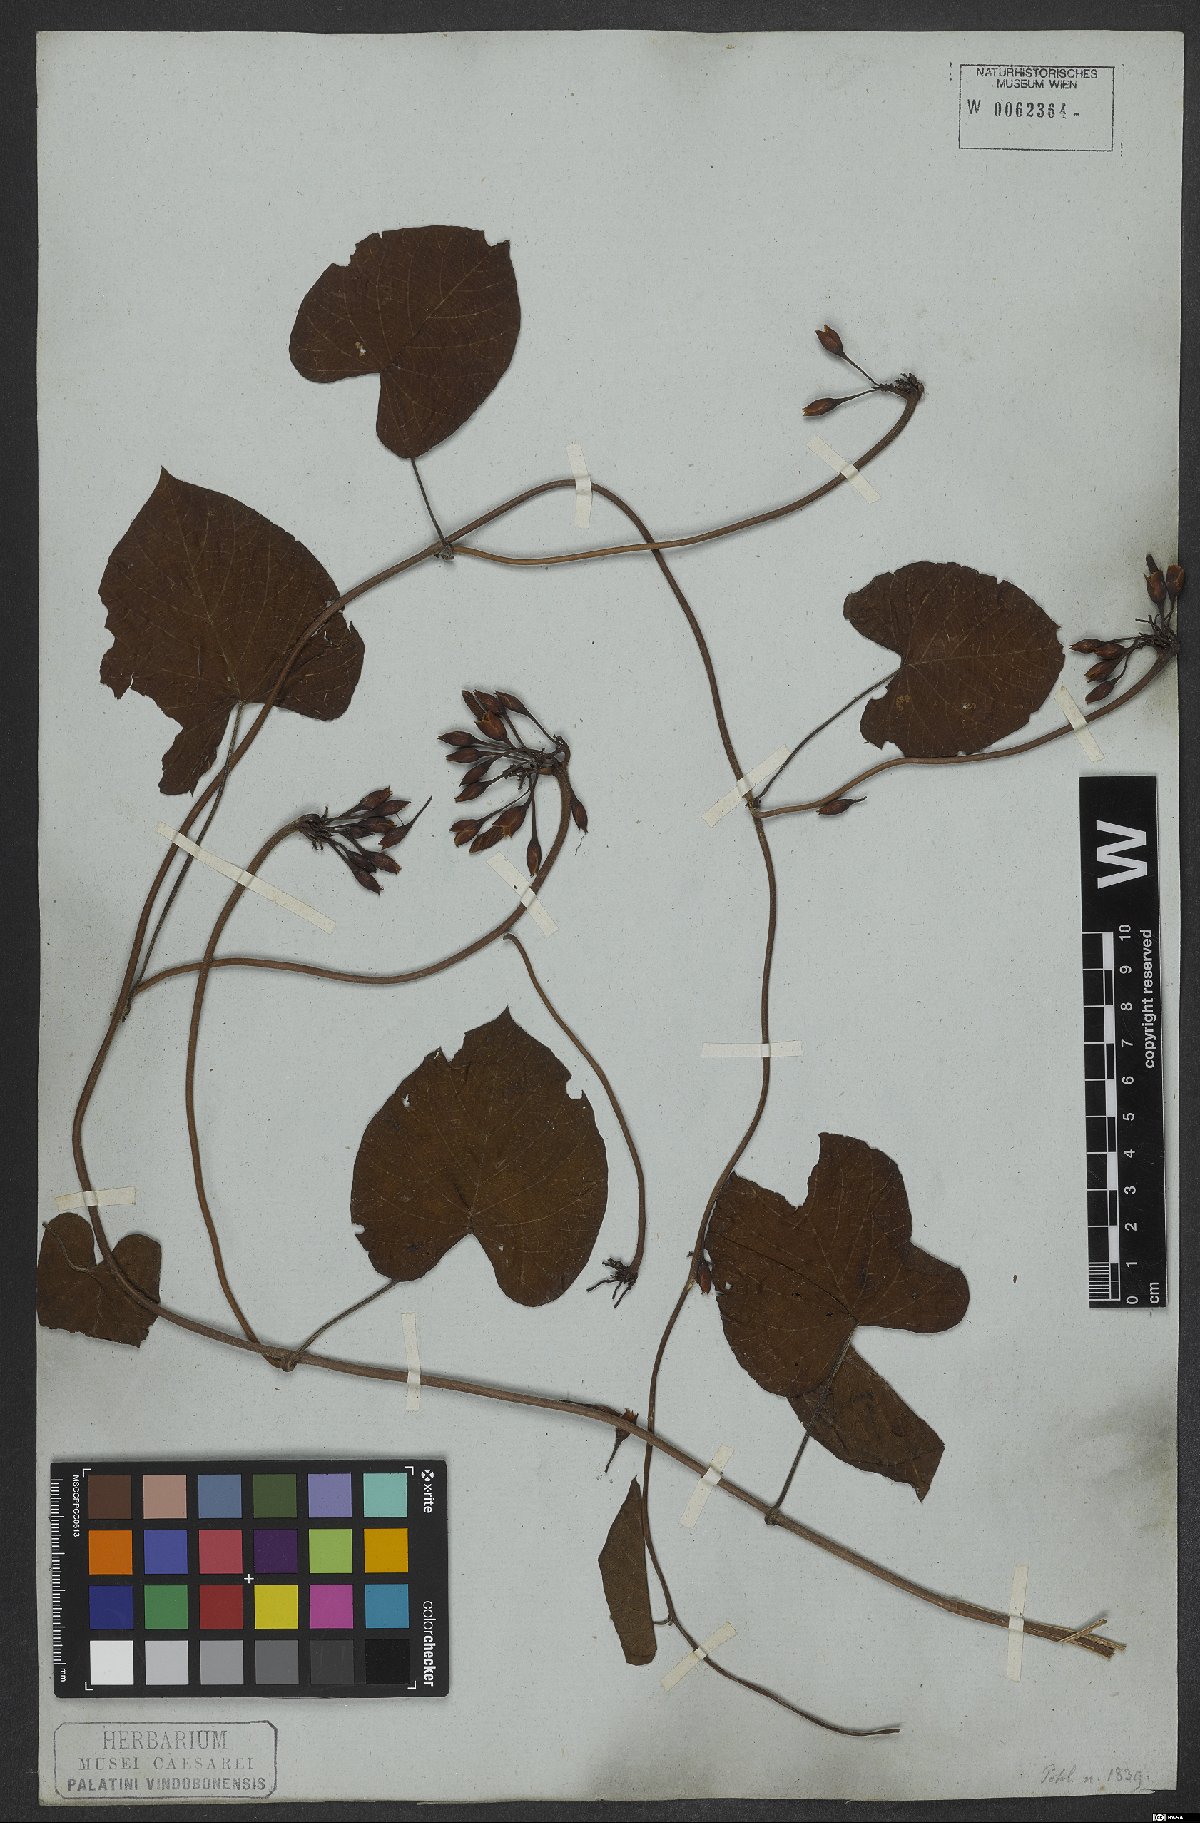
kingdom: Plantae
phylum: Tracheophyta
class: Magnoliopsida
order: Solanales
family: Convolvulaceae
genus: Distimake
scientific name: Distimake tomentosus
